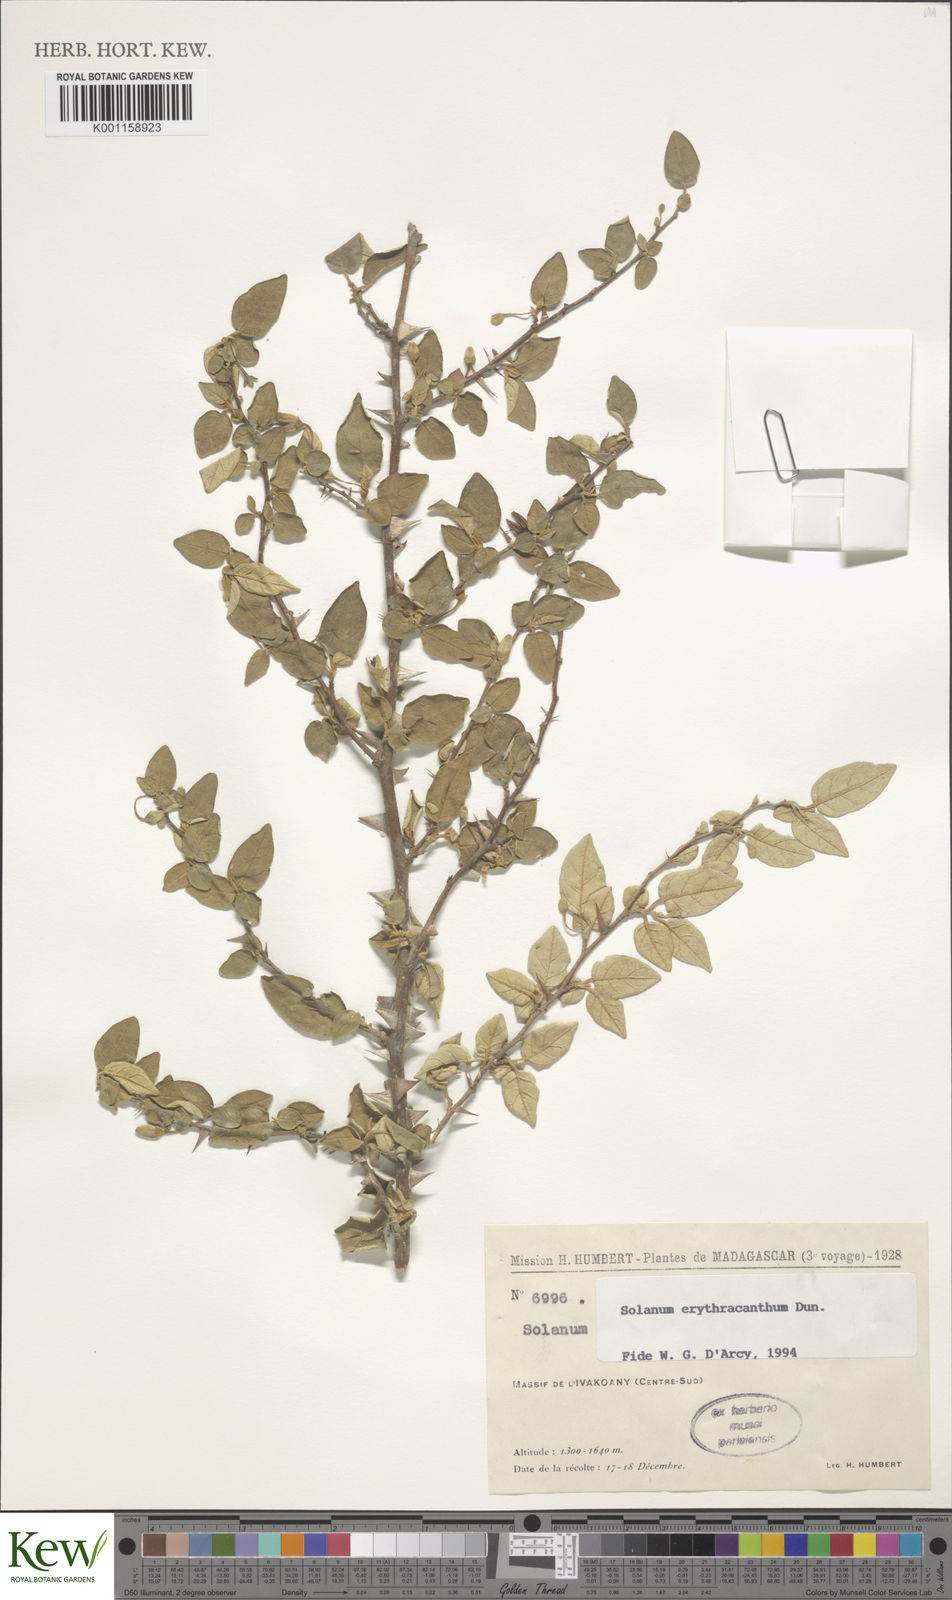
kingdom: Plantae
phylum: Tracheophyta
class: Magnoliopsida
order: Solanales
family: Solanaceae
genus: Solanum
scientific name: Solanum erythracanthum
